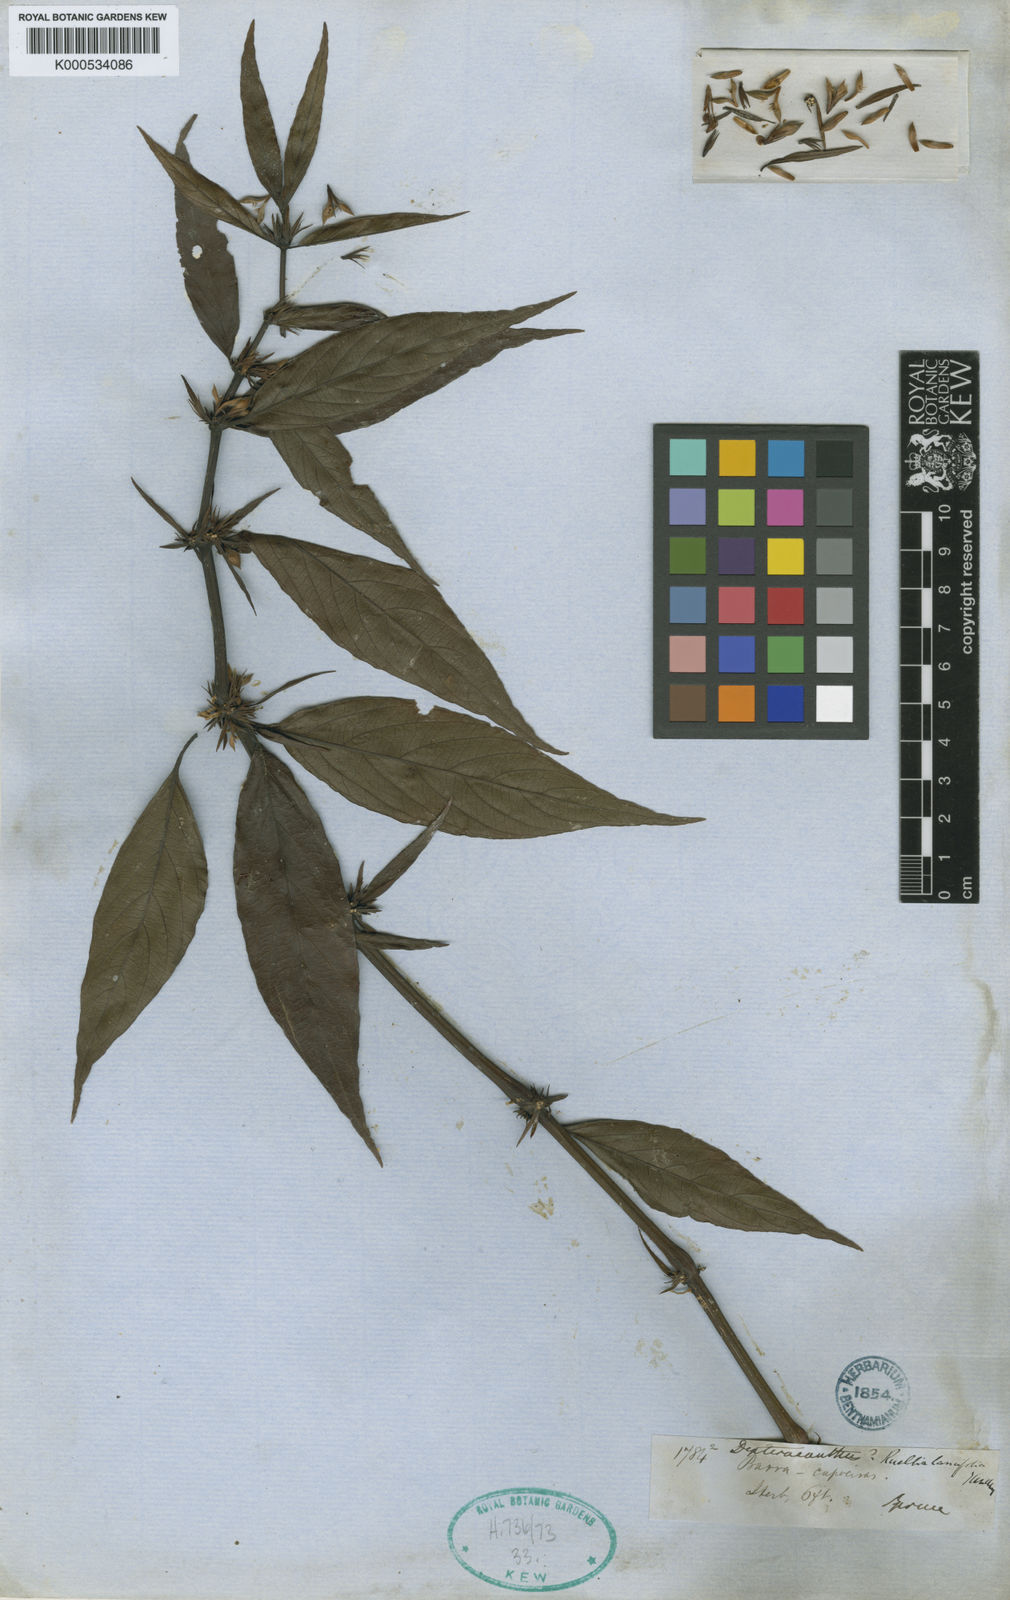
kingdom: Plantae
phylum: Tracheophyta
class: Magnoliopsida
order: Lamiales
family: Acanthaceae
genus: Ruellia
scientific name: Ruellia
